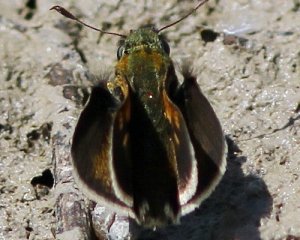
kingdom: Animalia
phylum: Arthropoda
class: Insecta
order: Lepidoptera
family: Hesperiidae
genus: Polites
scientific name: Polites themistocles
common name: Tawny-edged Skipper
